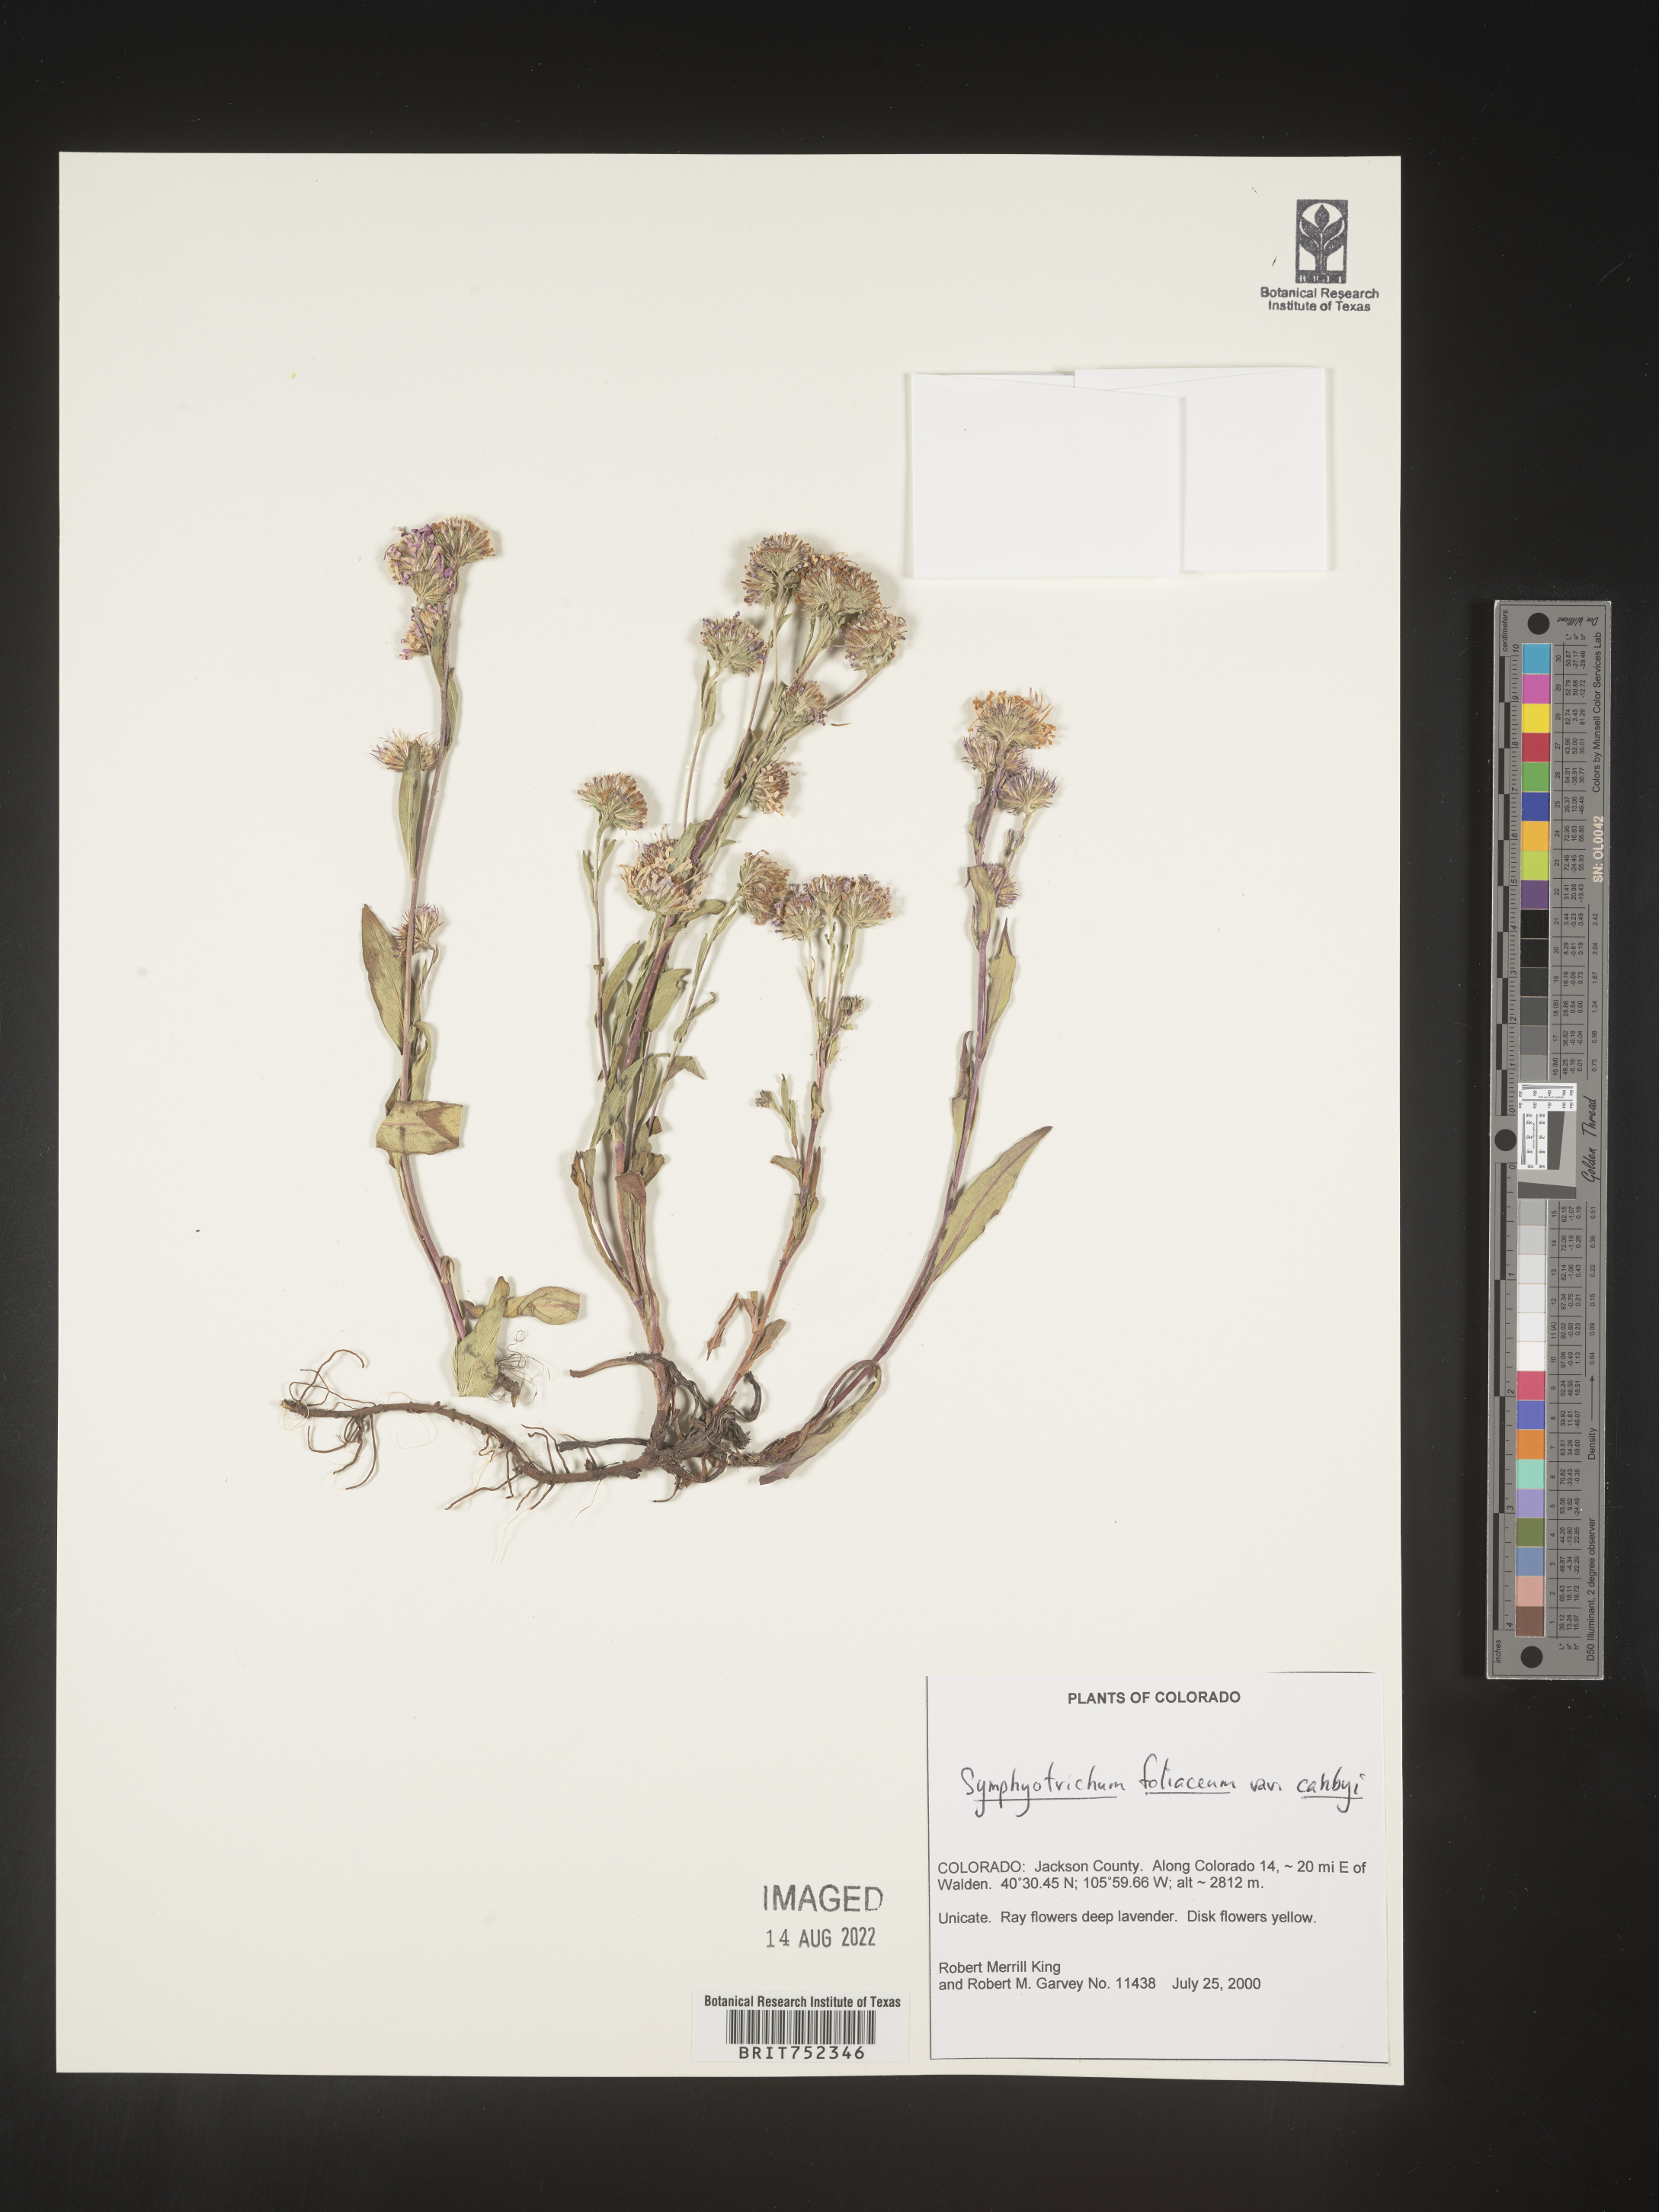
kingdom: Plantae
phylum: Tracheophyta
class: Magnoliopsida
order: Asterales
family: Asteraceae
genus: Symphyotrichum
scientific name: Symphyotrichum foliaceum
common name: Leafy aster
